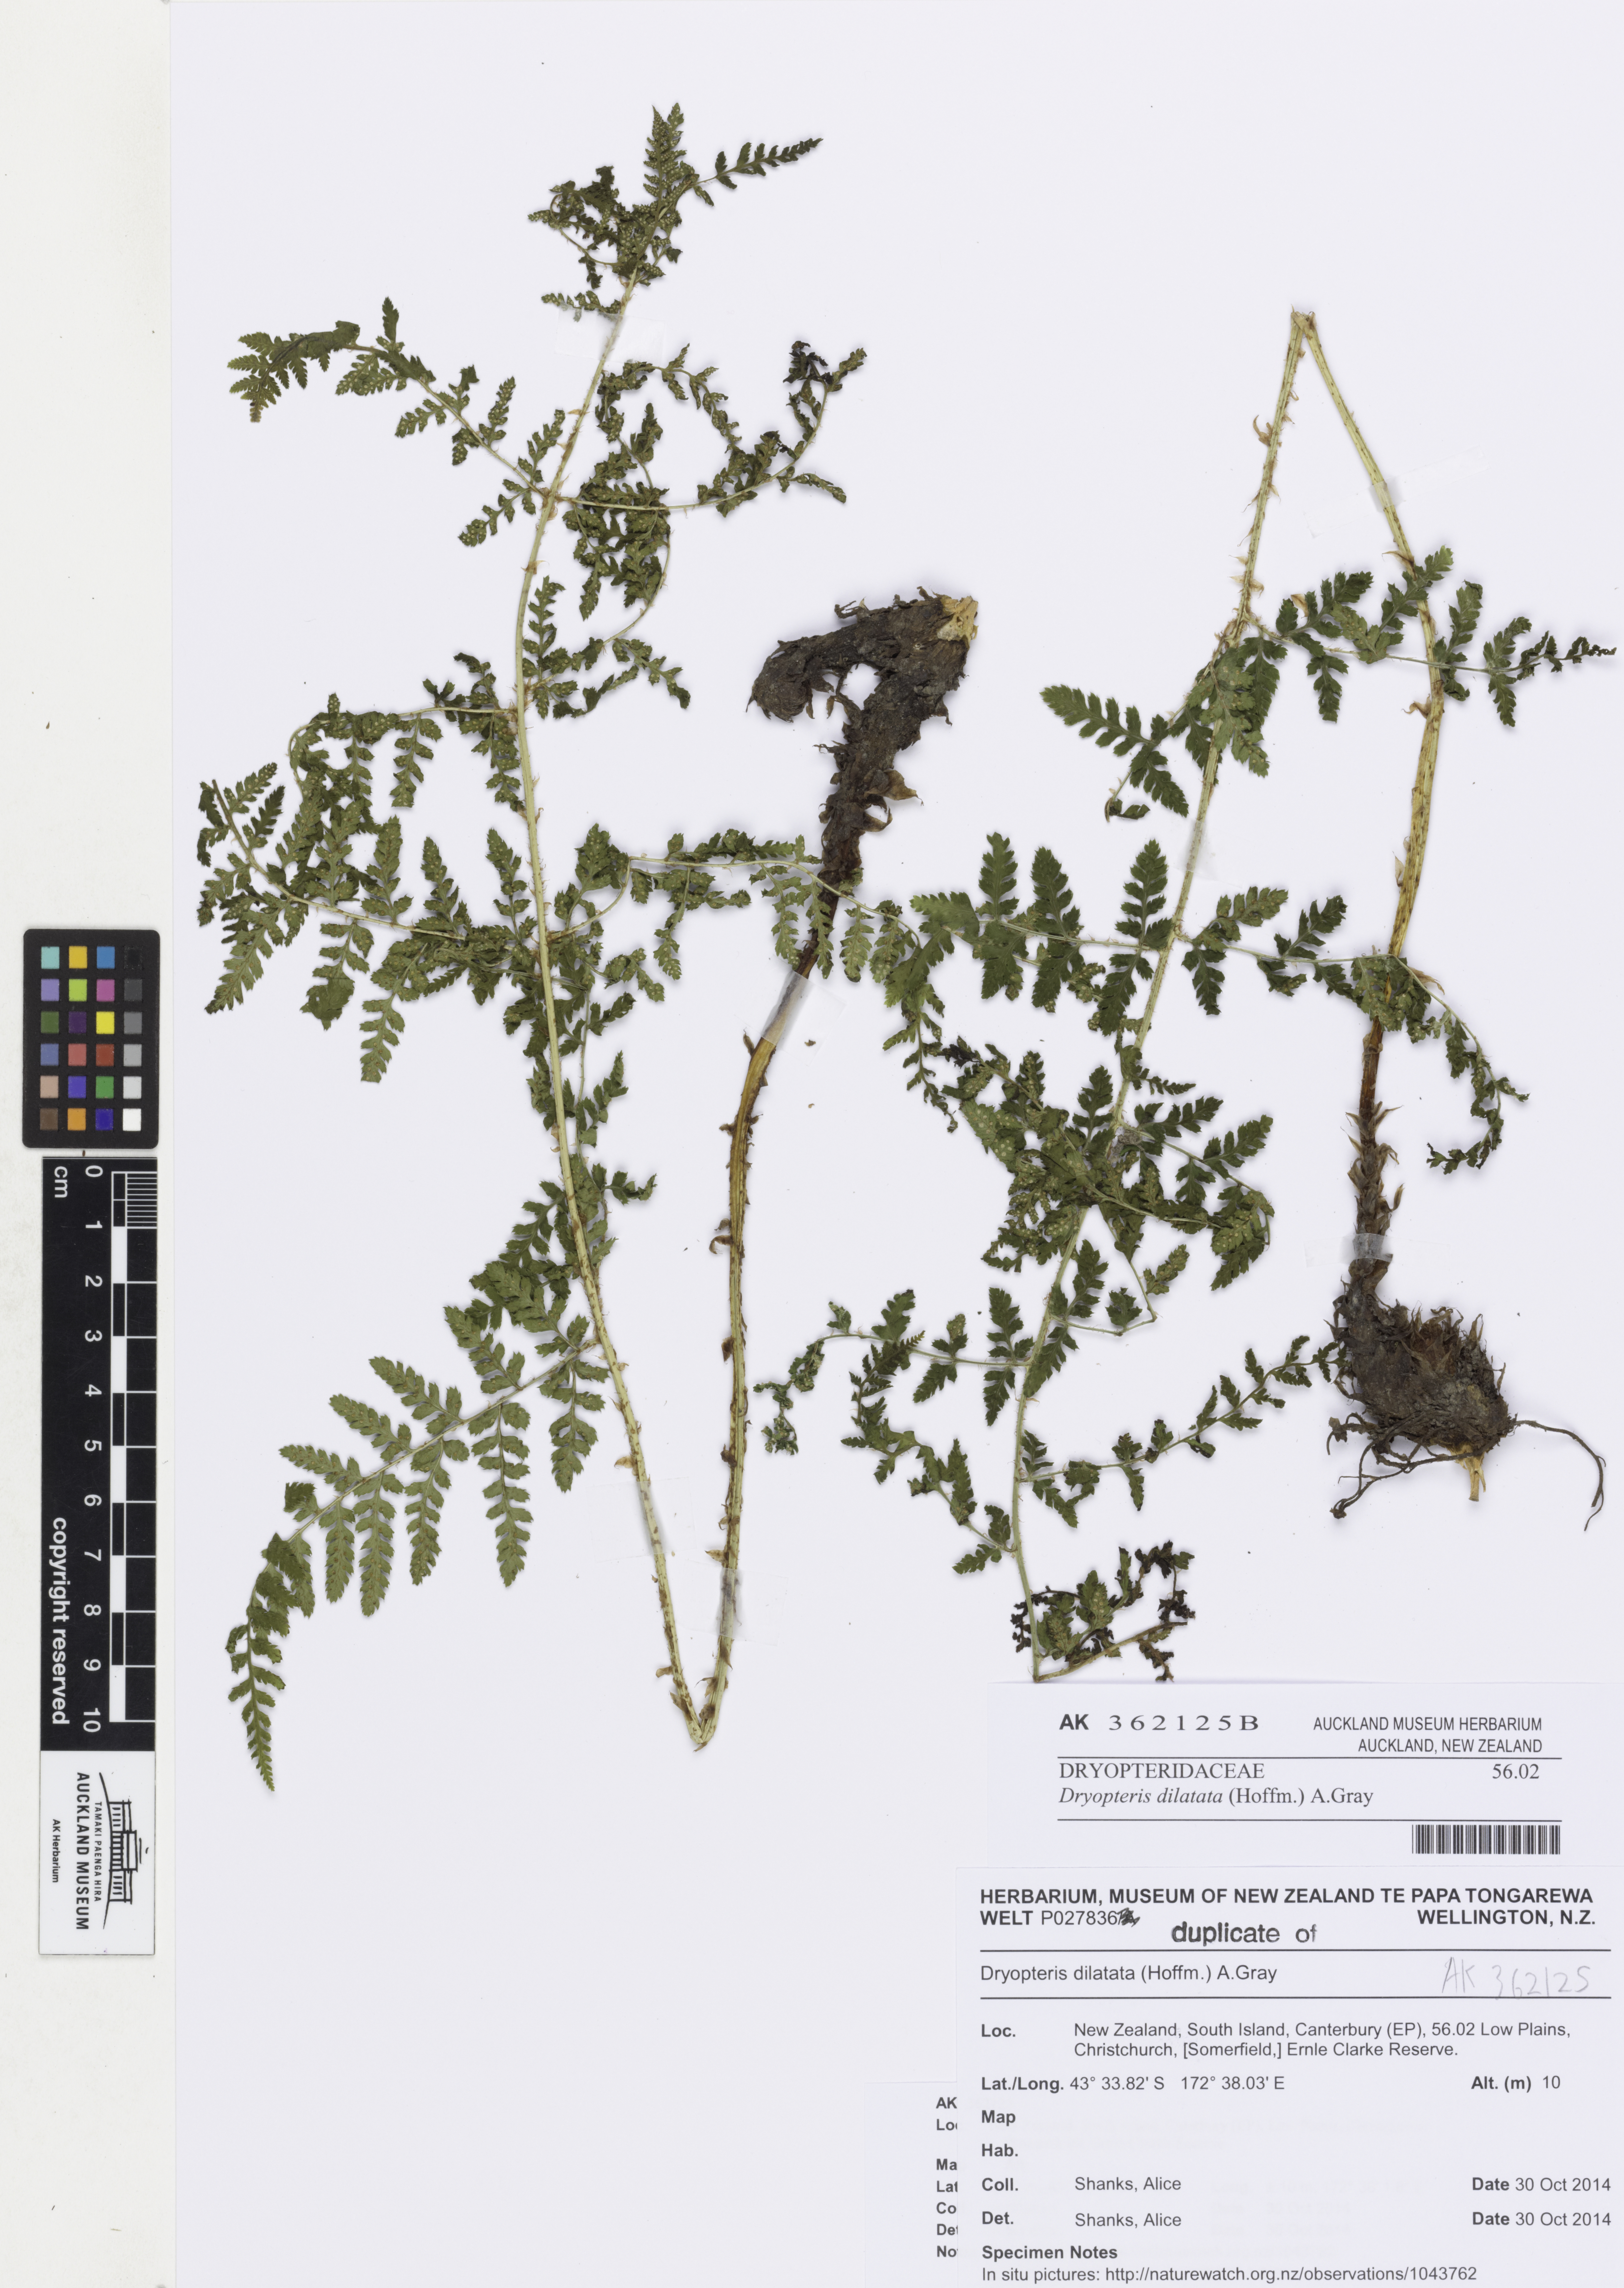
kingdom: Plantae
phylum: Tracheophyta
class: Polypodiopsida
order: Polypodiales
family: Dryopteridaceae
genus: Dryopteris
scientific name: Dryopteris dilatata
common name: Broad buckler-fern
